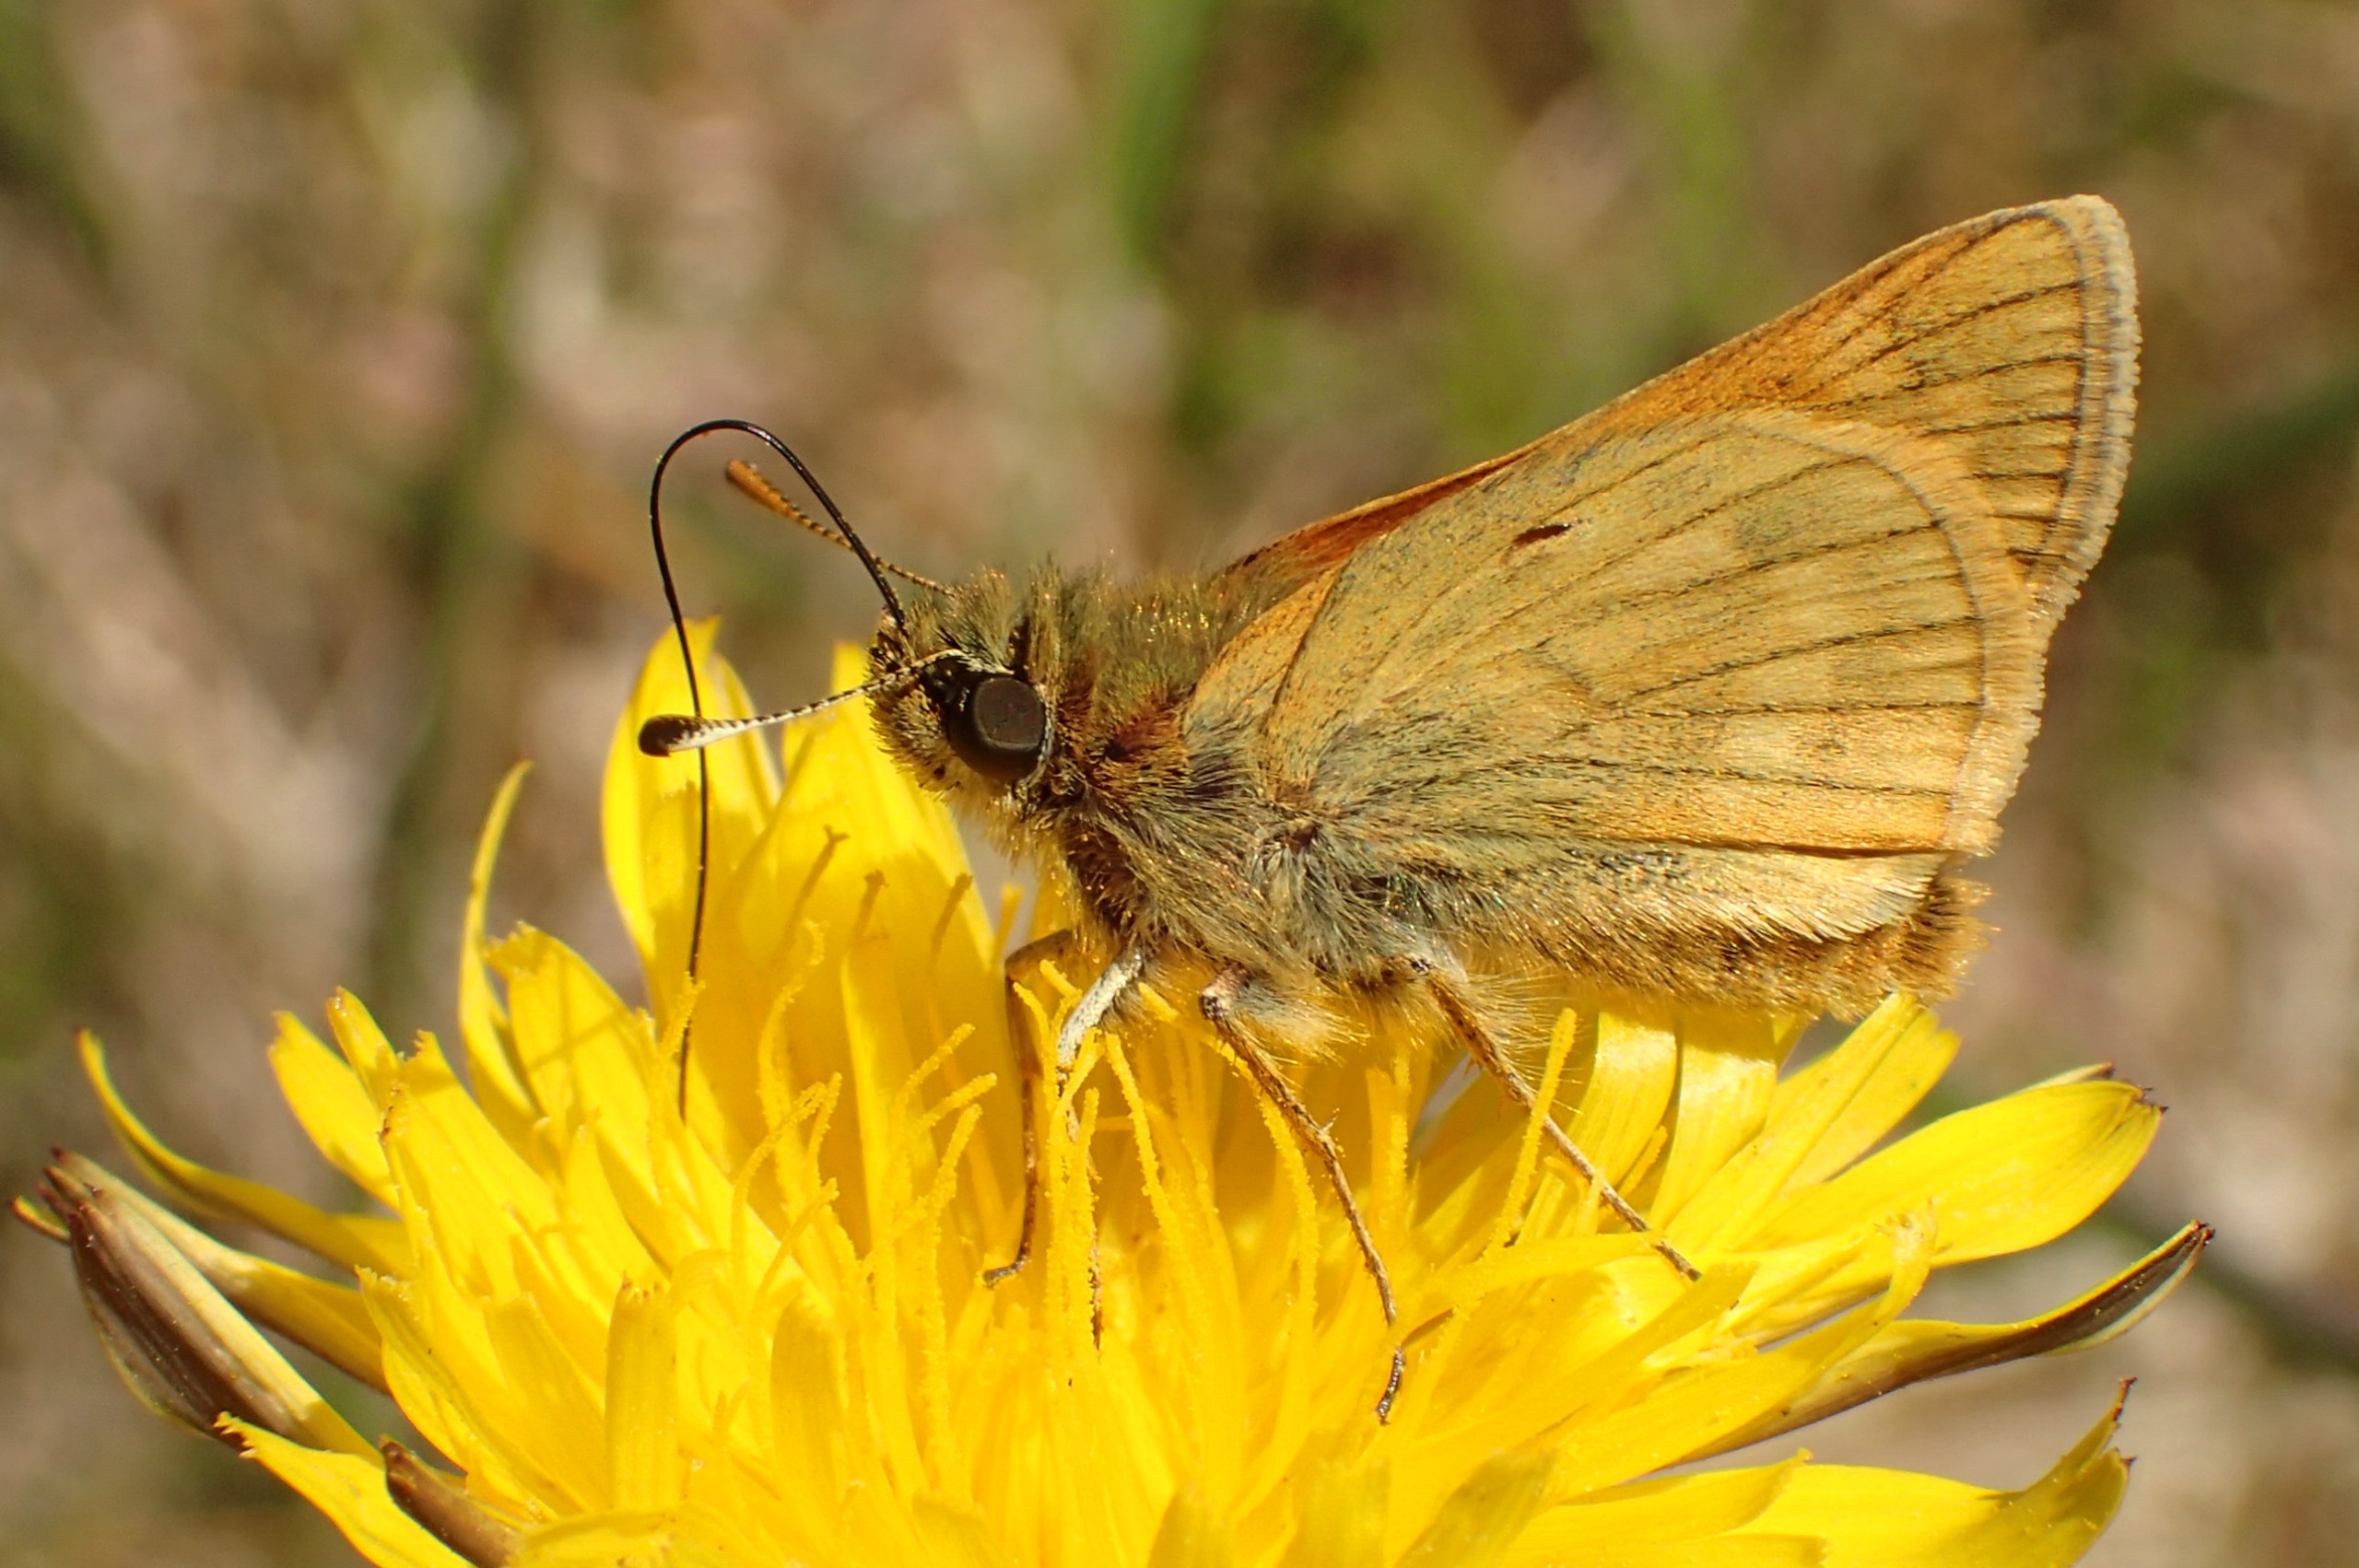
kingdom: Animalia
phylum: Arthropoda
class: Insecta
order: Lepidoptera
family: Hesperiidae
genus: Ochlodes
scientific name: Ochlodes venata
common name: Stor bredpande
